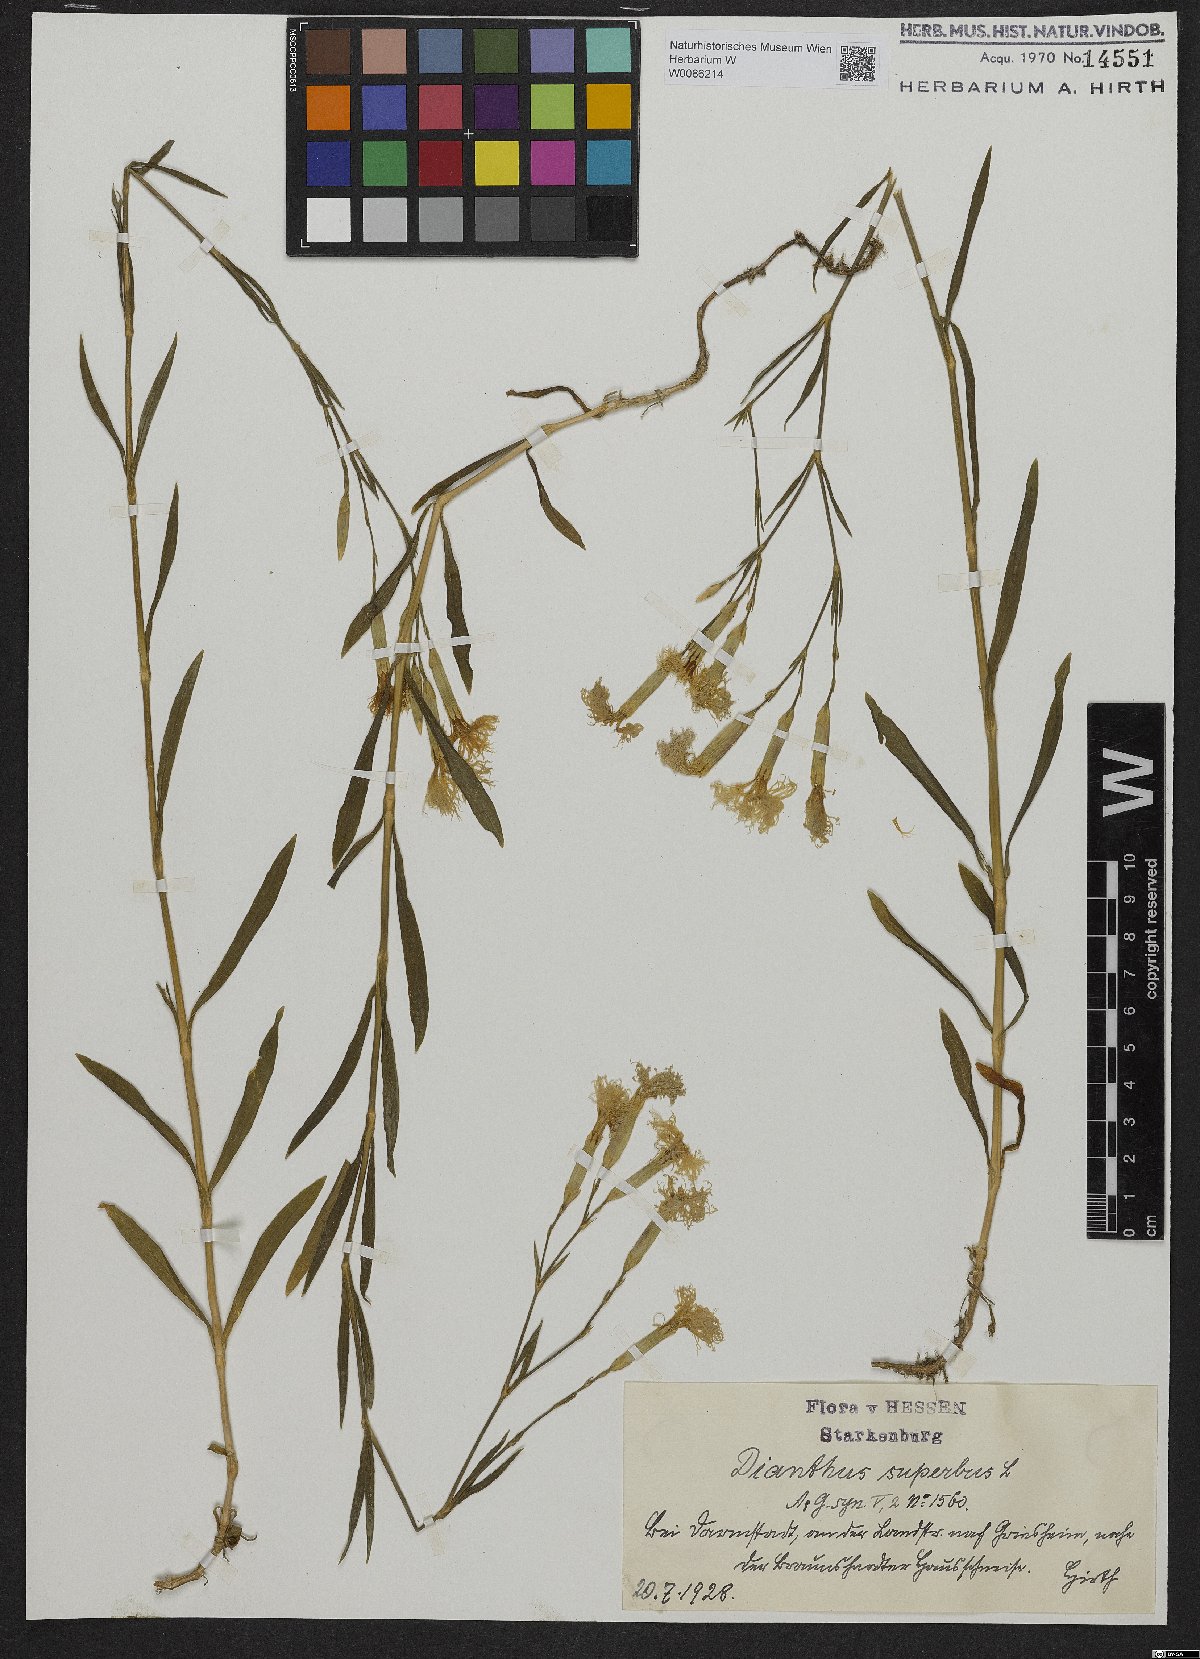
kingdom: Plantae
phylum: Tracheophyta
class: Magnoliopsida
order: Caryophyllales
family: Caryophyllaceae
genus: Dianthus
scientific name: Dianthus superbus
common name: Fringed pink
